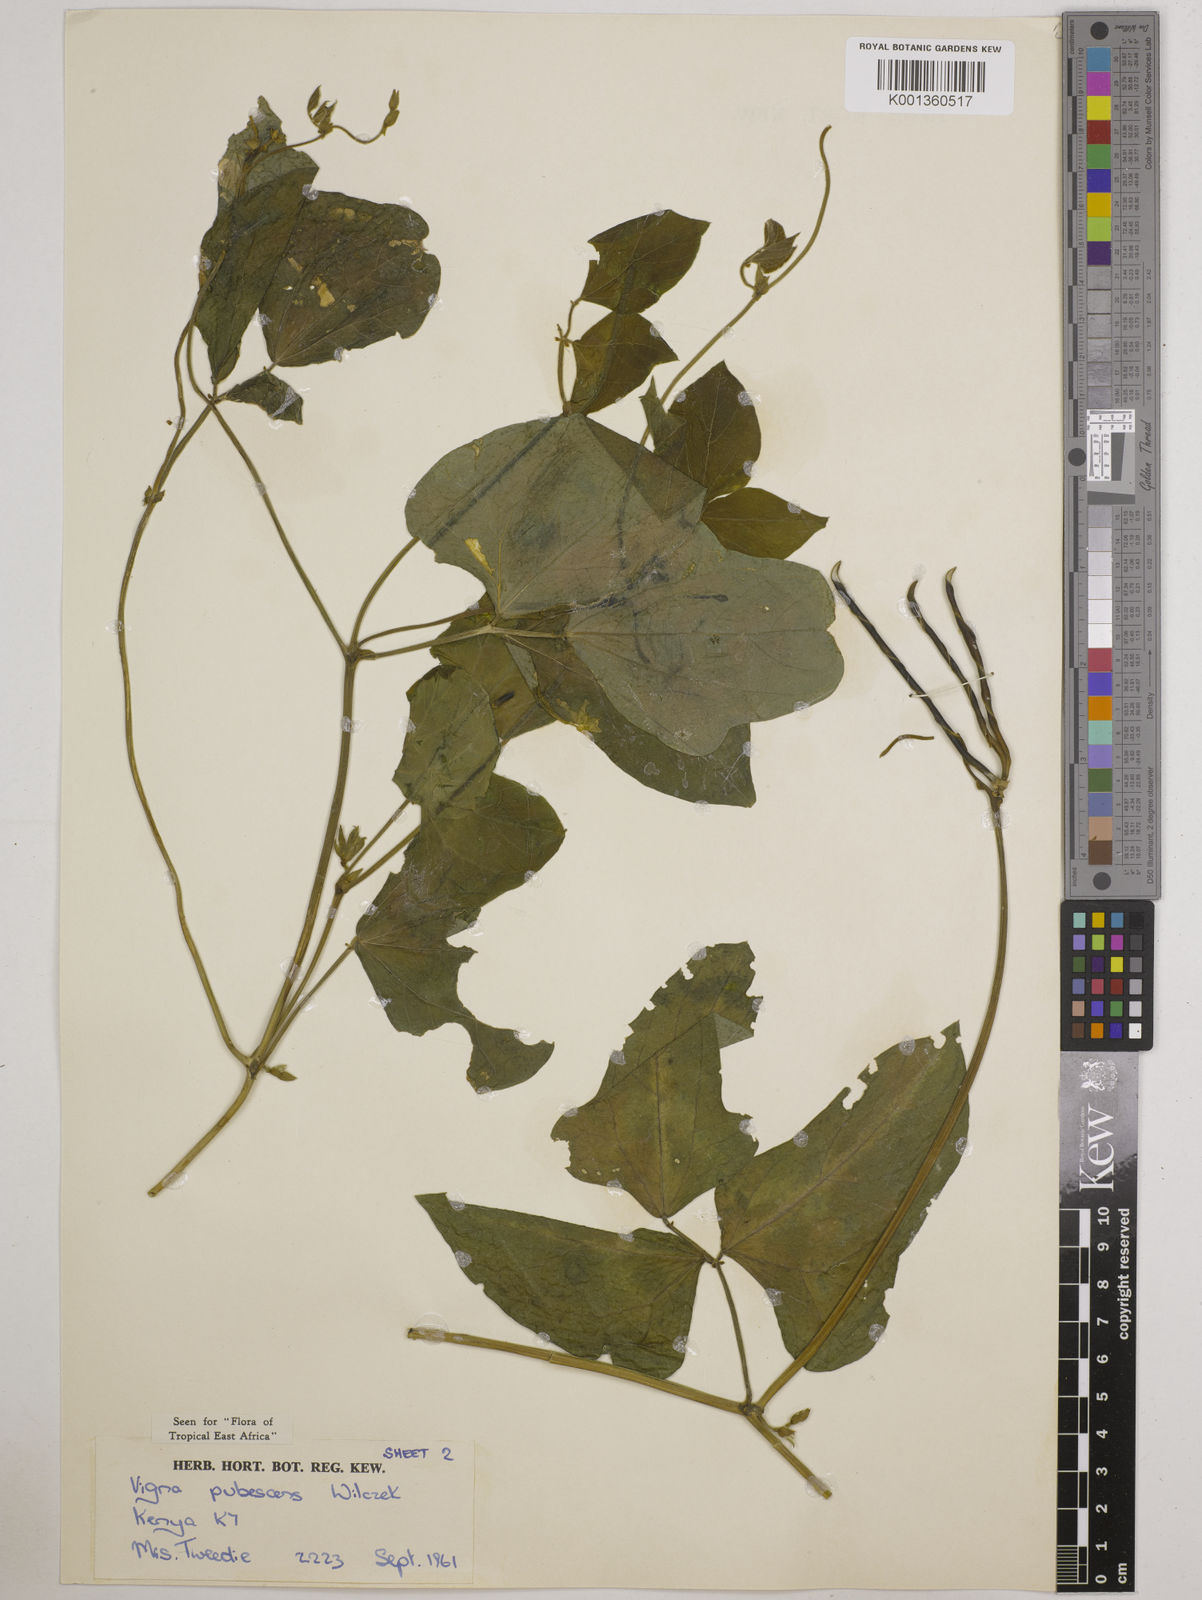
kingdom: Plantae
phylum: Tracheophyta
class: Magnoliopsida
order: Fabales
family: Fabaceae
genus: Vigna
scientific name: Vigna unguiculata
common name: Cowpea
